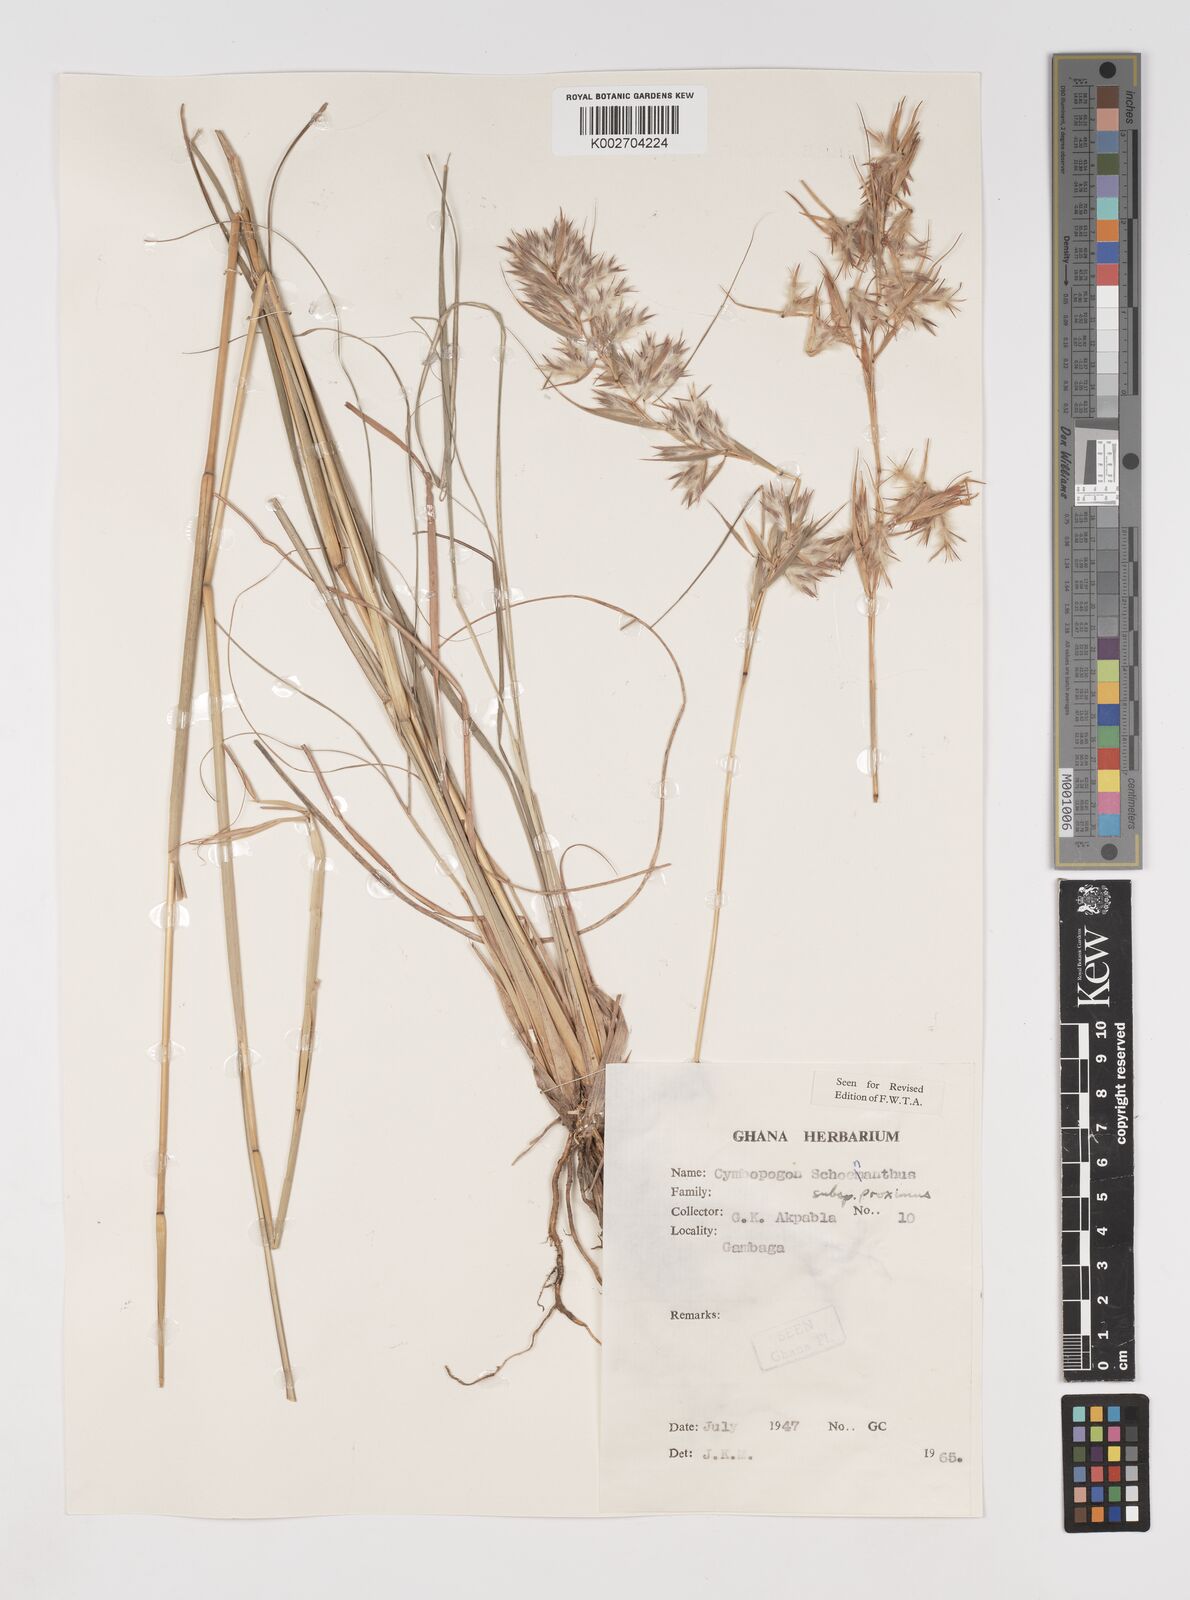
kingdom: Plantae
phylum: Tracheophyta
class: Liliopsida
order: Poales
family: Poaceae
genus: Cymbopogon
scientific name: Cymbopogon schoenanthus
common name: Geranium grass
